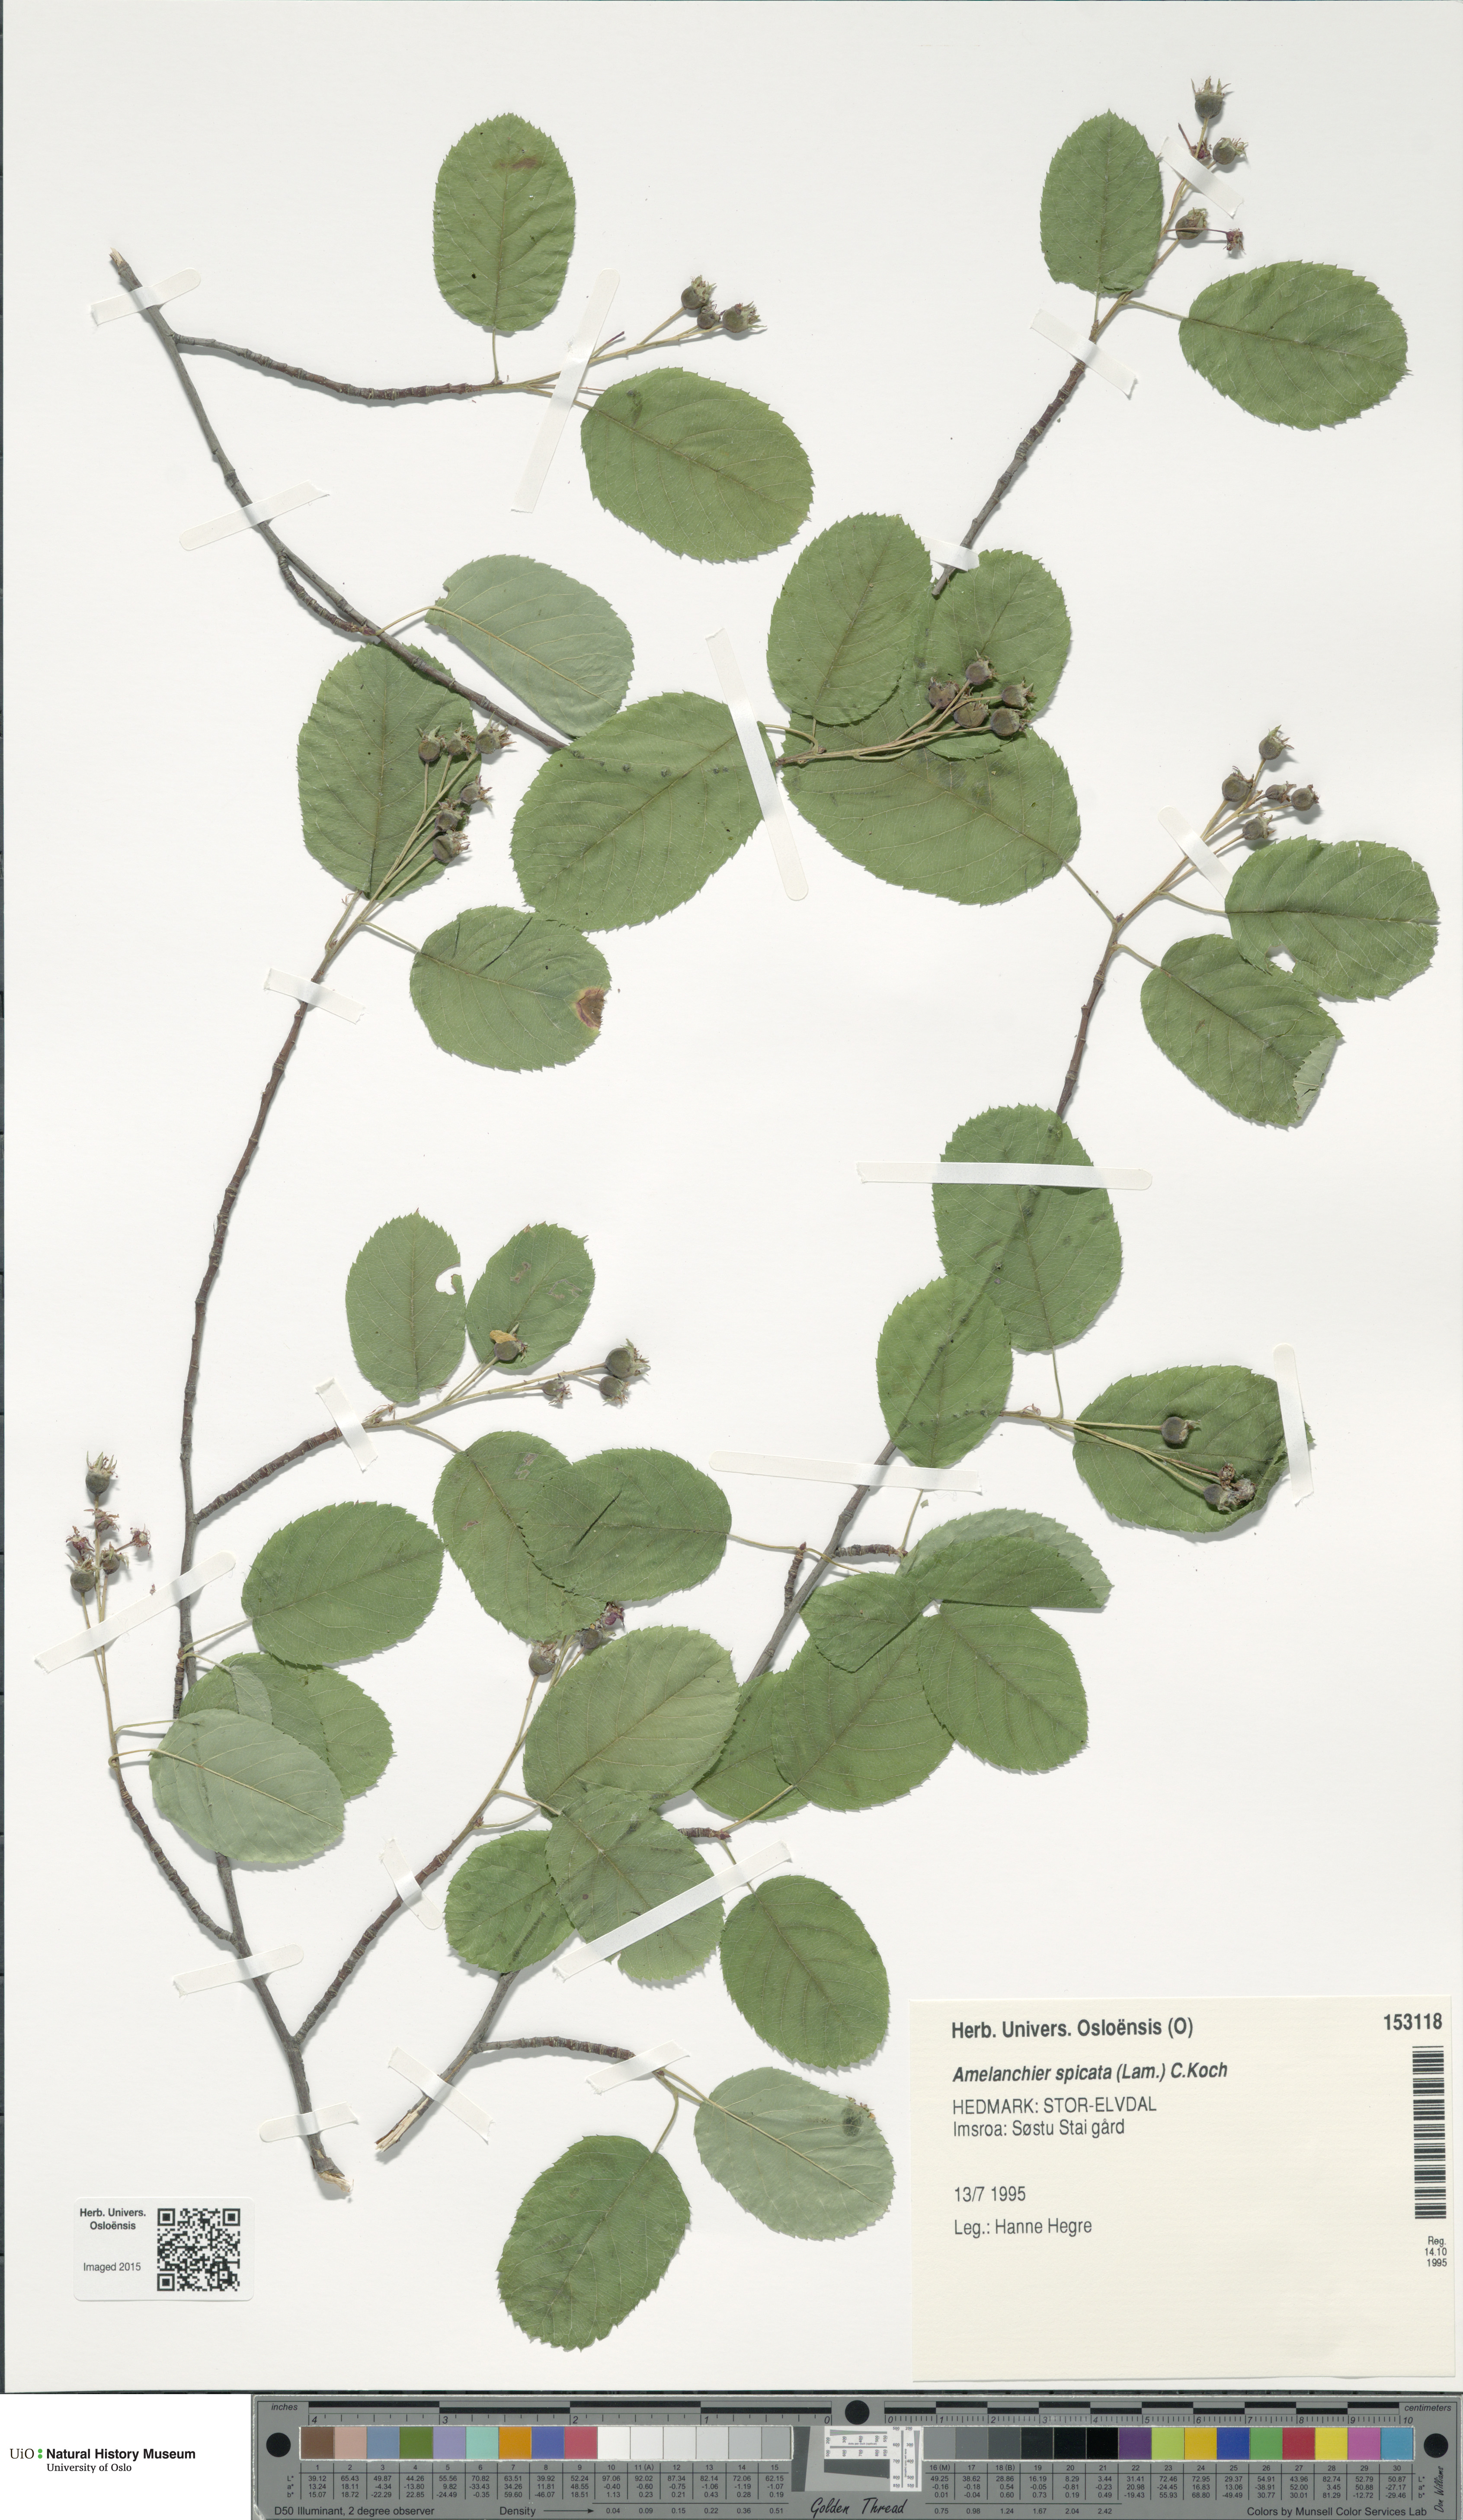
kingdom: Plantae
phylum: Tracheophyta
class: Magnoliopsida
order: Rosales
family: Rosaceae
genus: Amelanchier
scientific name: Amelanchier humilis
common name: Low juneberry
